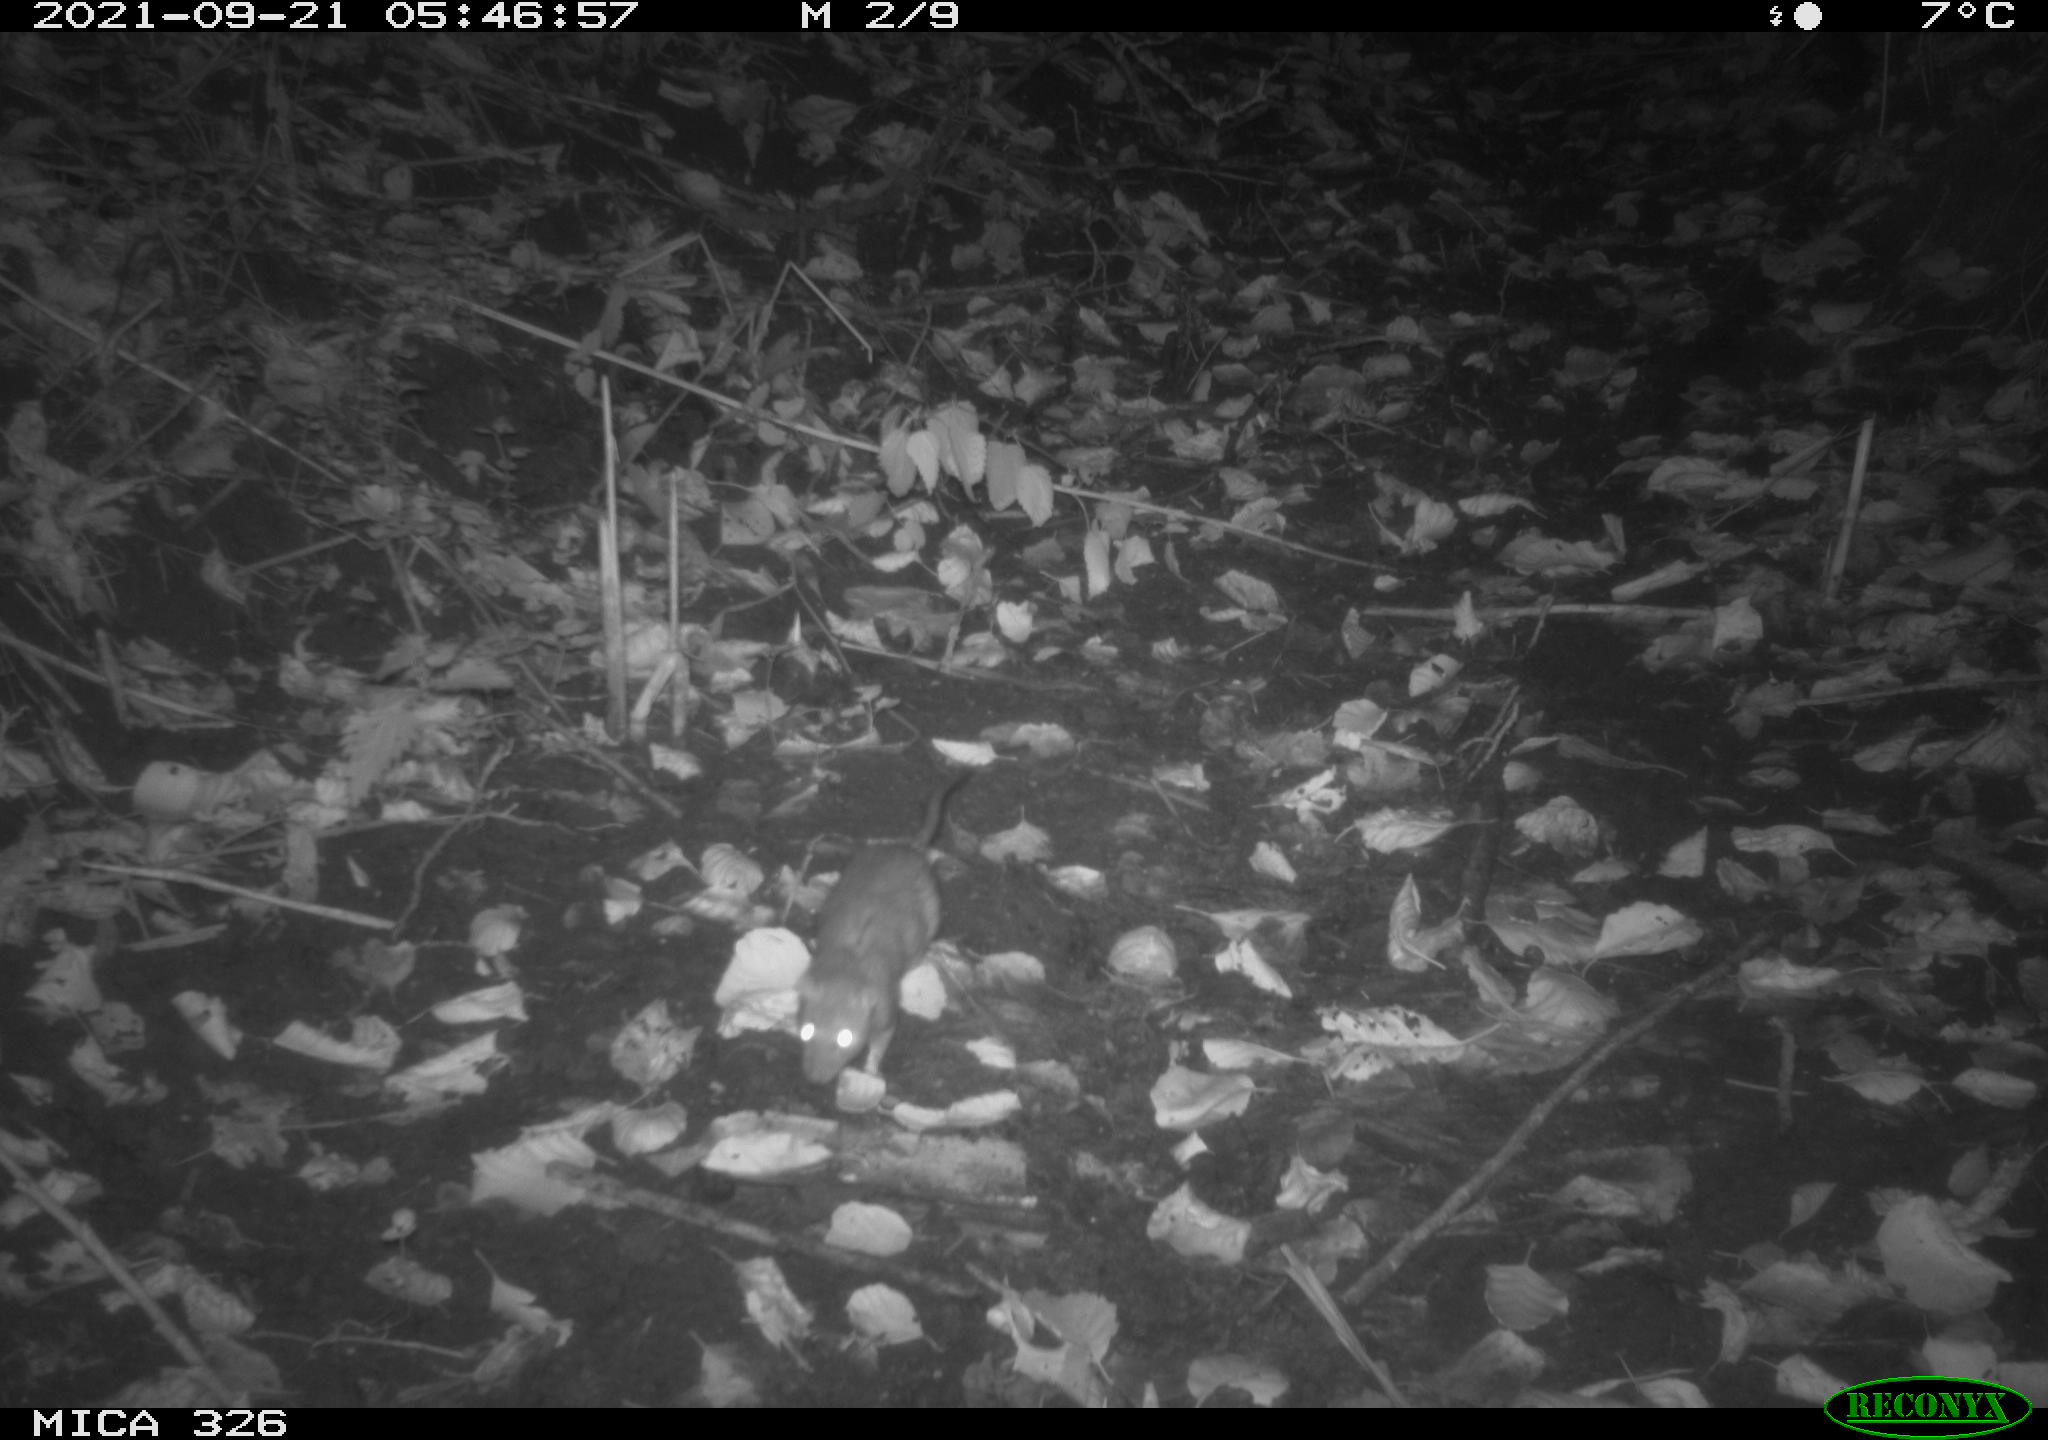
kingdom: Animalia
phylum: Chordata
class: Mammalia
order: Rodentia
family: Muridae
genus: Rattus
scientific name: Rattus norvegicus
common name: Brown rat
